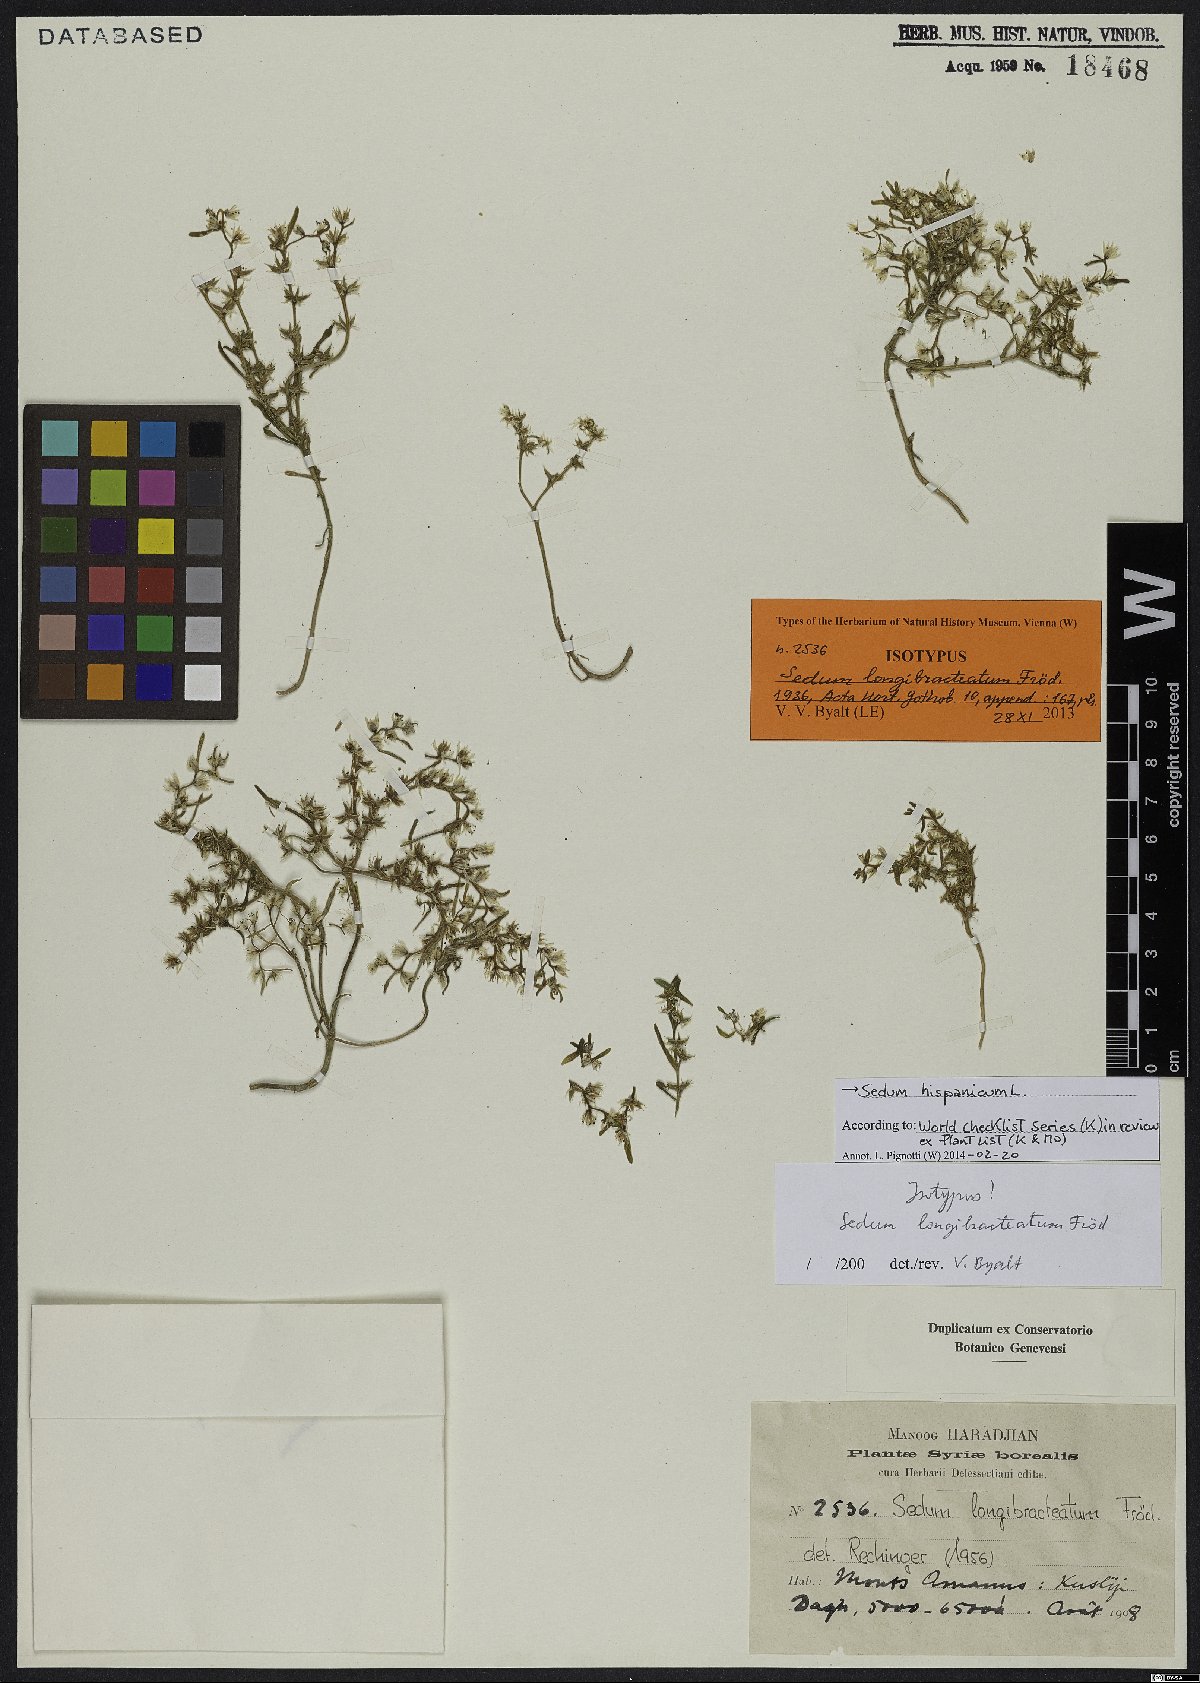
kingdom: Plantae
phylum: Tracheophyta
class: Magnoliopsida
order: Saxifragales
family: Crassulaceae
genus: Sedum
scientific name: Sedum hispanicum
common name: Spanish stonecrop
